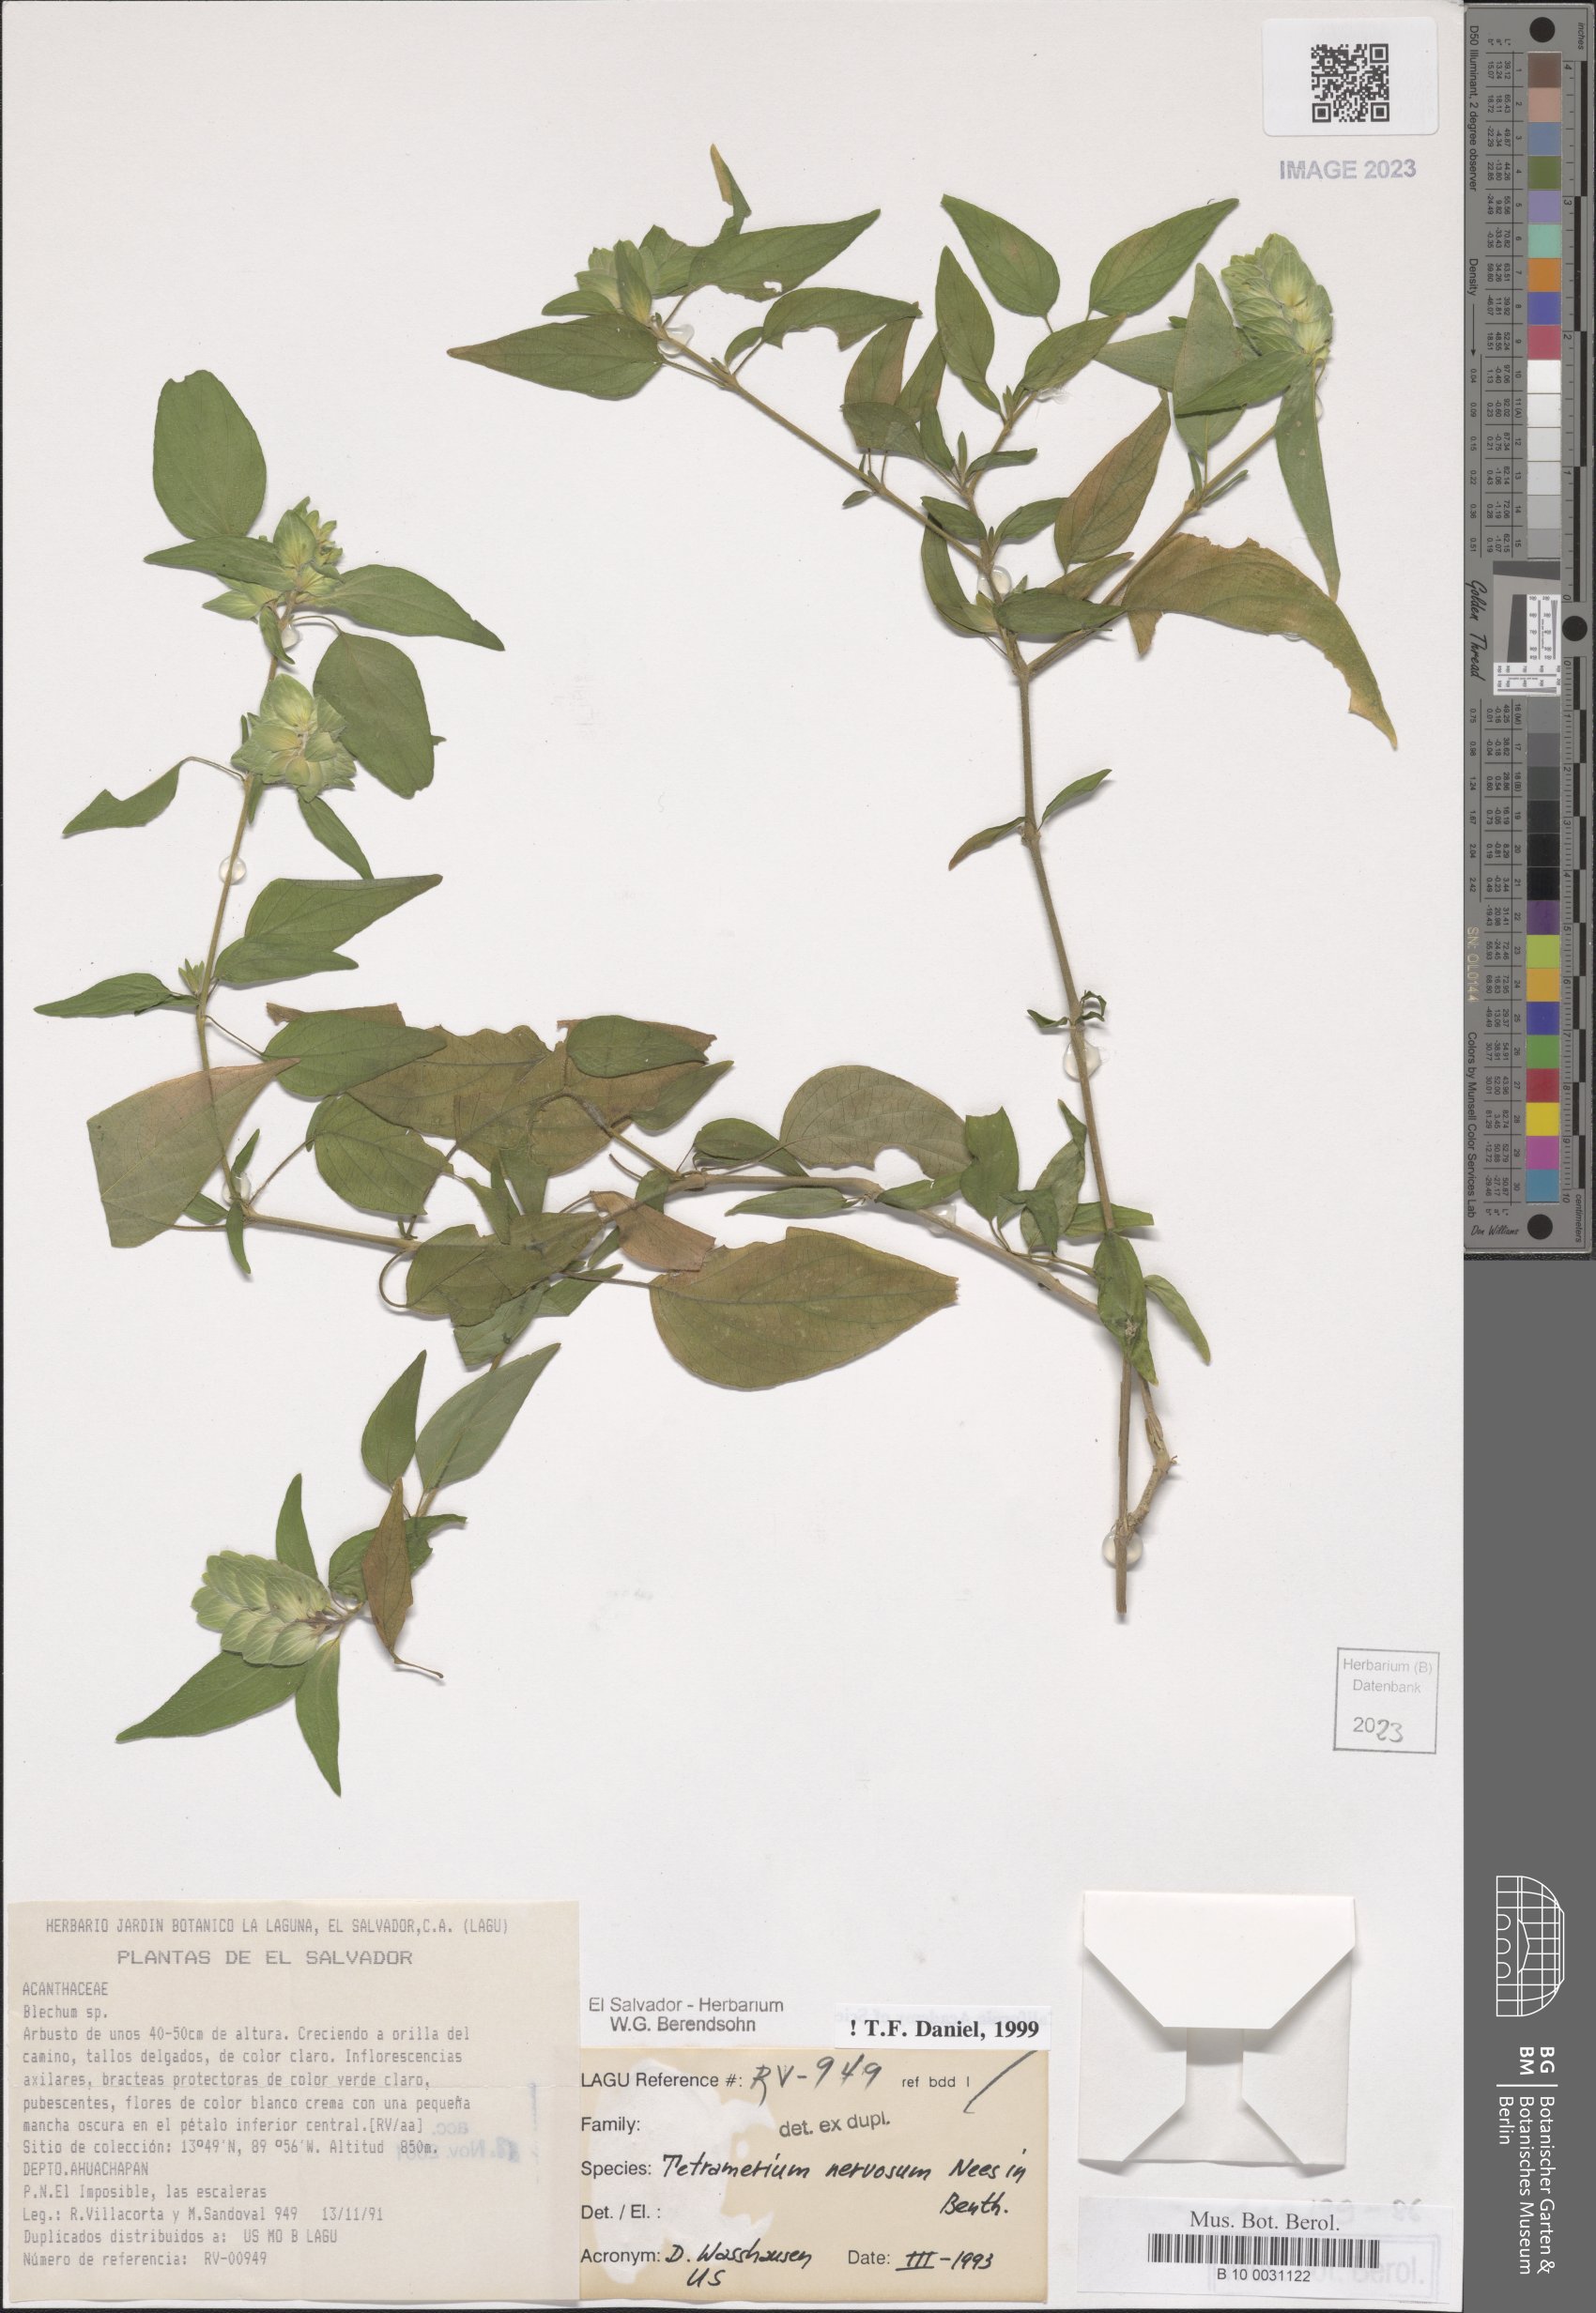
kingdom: Plantae
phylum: Tracheophyta
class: Magnoliopsida
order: Lamiales
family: Acanthaceae
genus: Tetramerium
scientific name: Tetramerium nervosum
